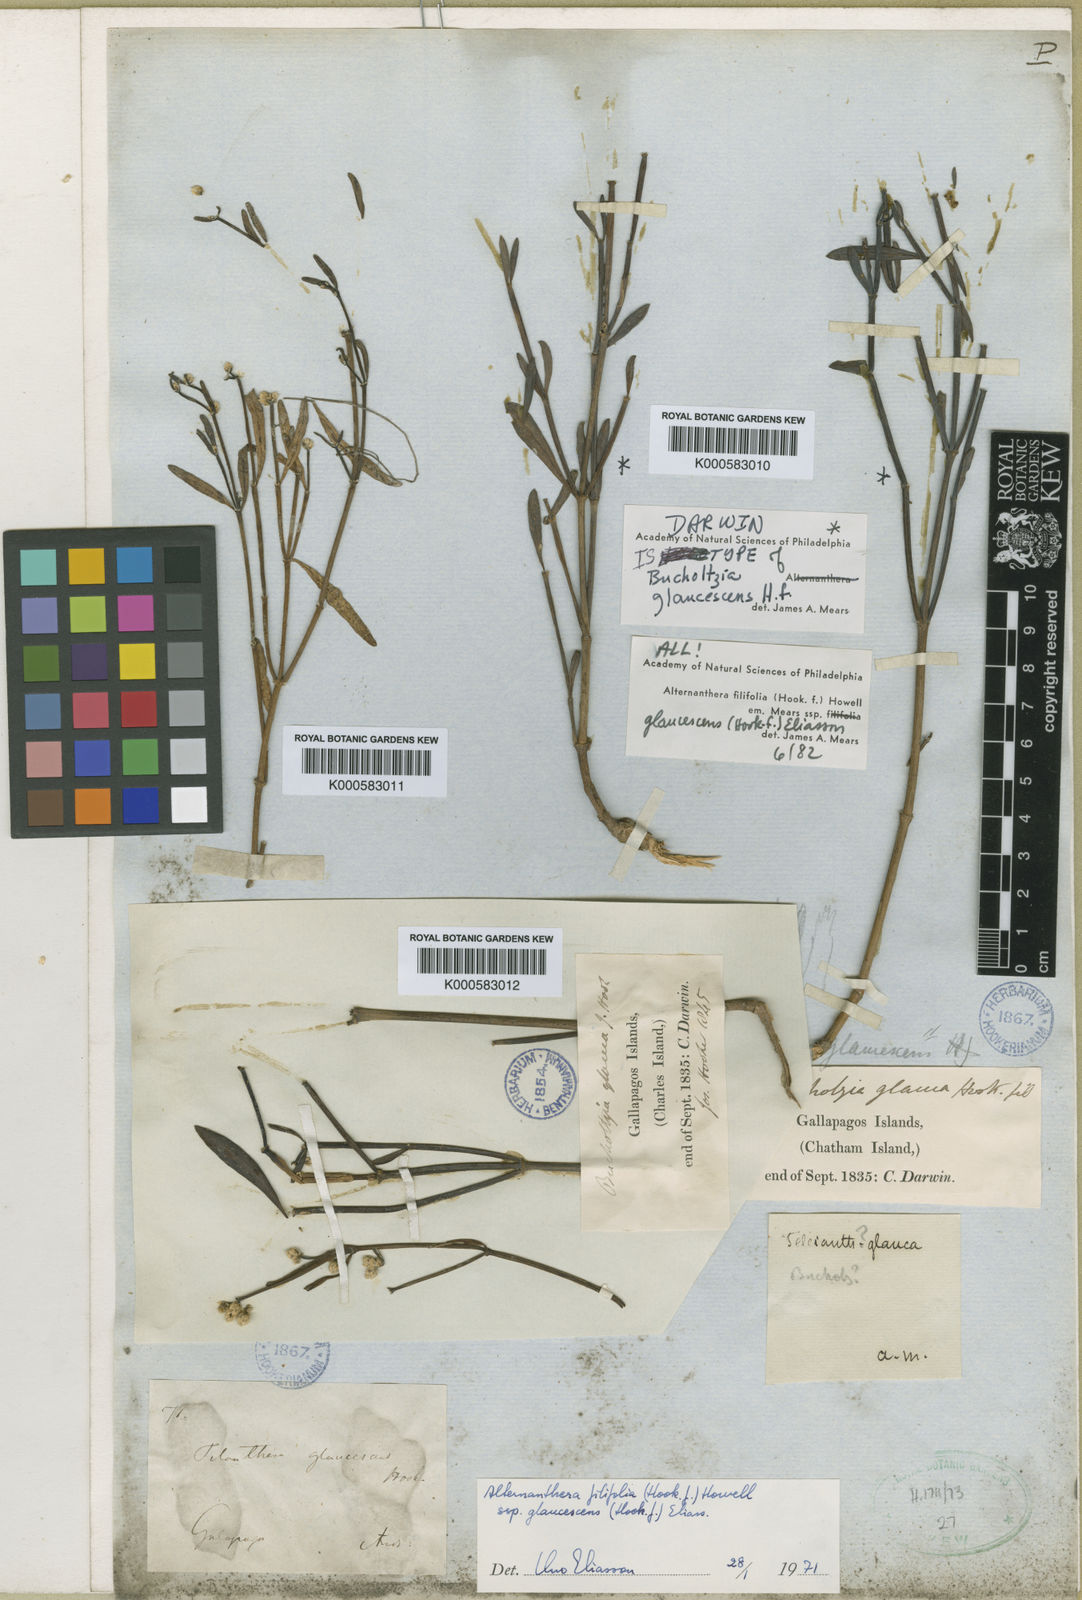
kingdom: Plantae
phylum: Tracheophyta
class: Magnoliopsida
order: Caryophyllales
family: Amaranthaceae
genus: Alternanthera
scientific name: Alternanthera filifolia
